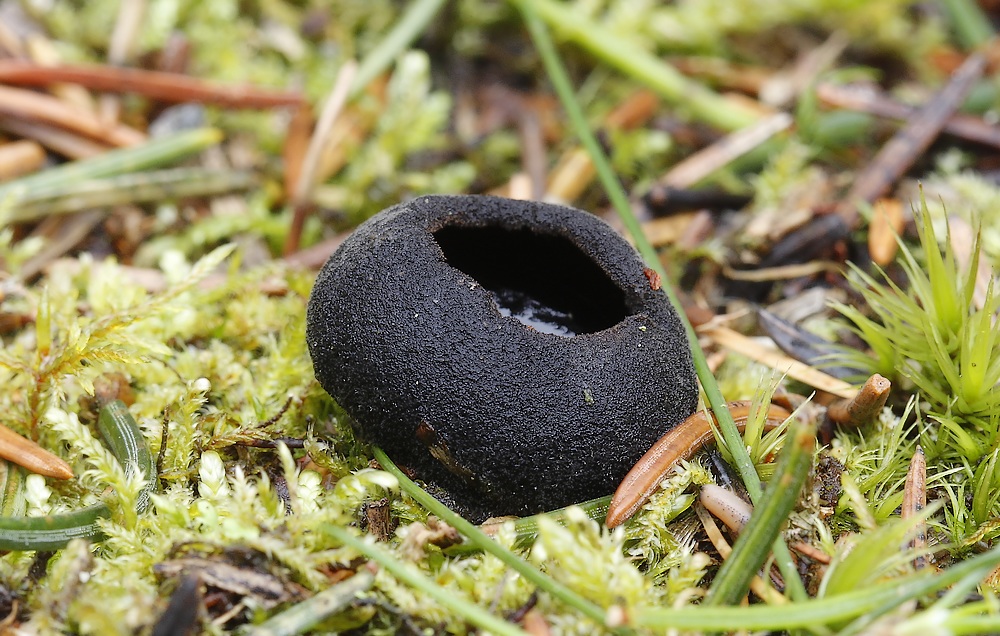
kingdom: Fungi
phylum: Ascomycota
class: Pezizomycetes
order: Pezizales
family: Sarcosomataceae
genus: Pseudoplectania
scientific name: Pseudoplectania nigrella
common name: almindelig sortbæger
